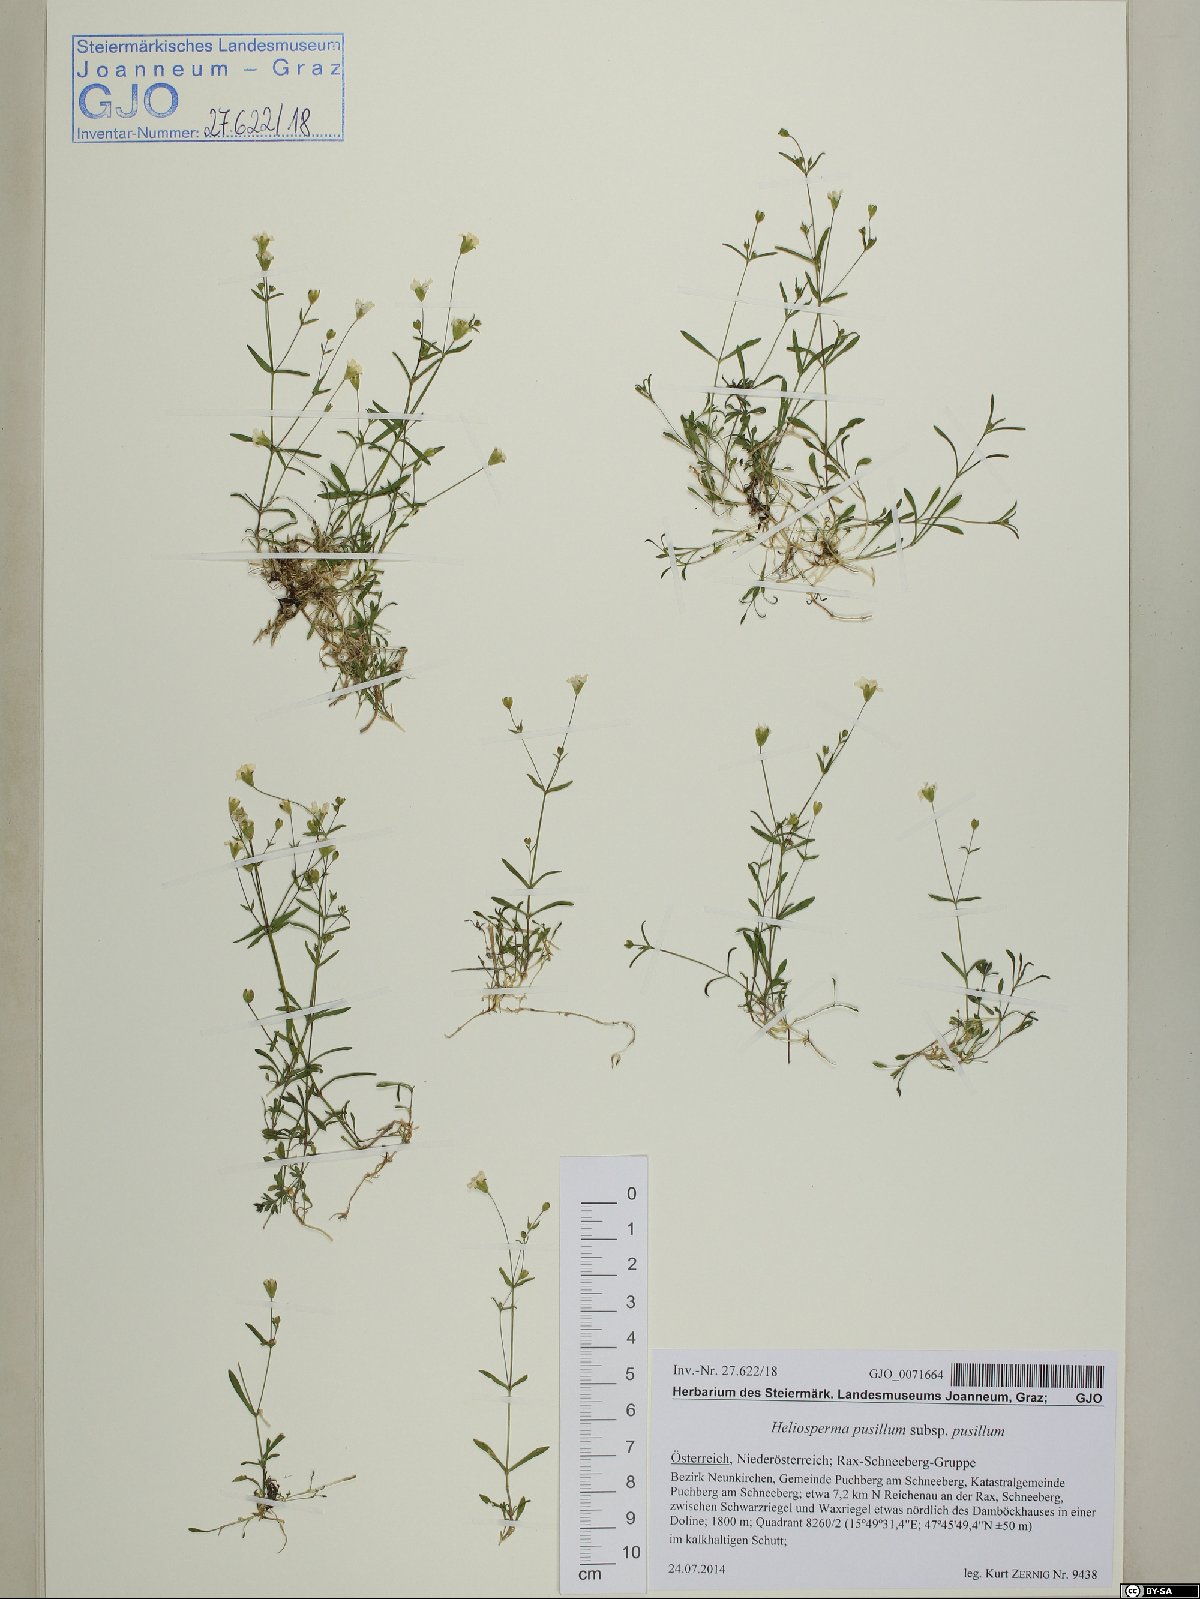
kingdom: Plantae
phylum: Tracheophyta
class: Magnoliopsida
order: Caryophyllales
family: Caryophyllaceae
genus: Heliosperma
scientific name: Heliosperma pusillum
